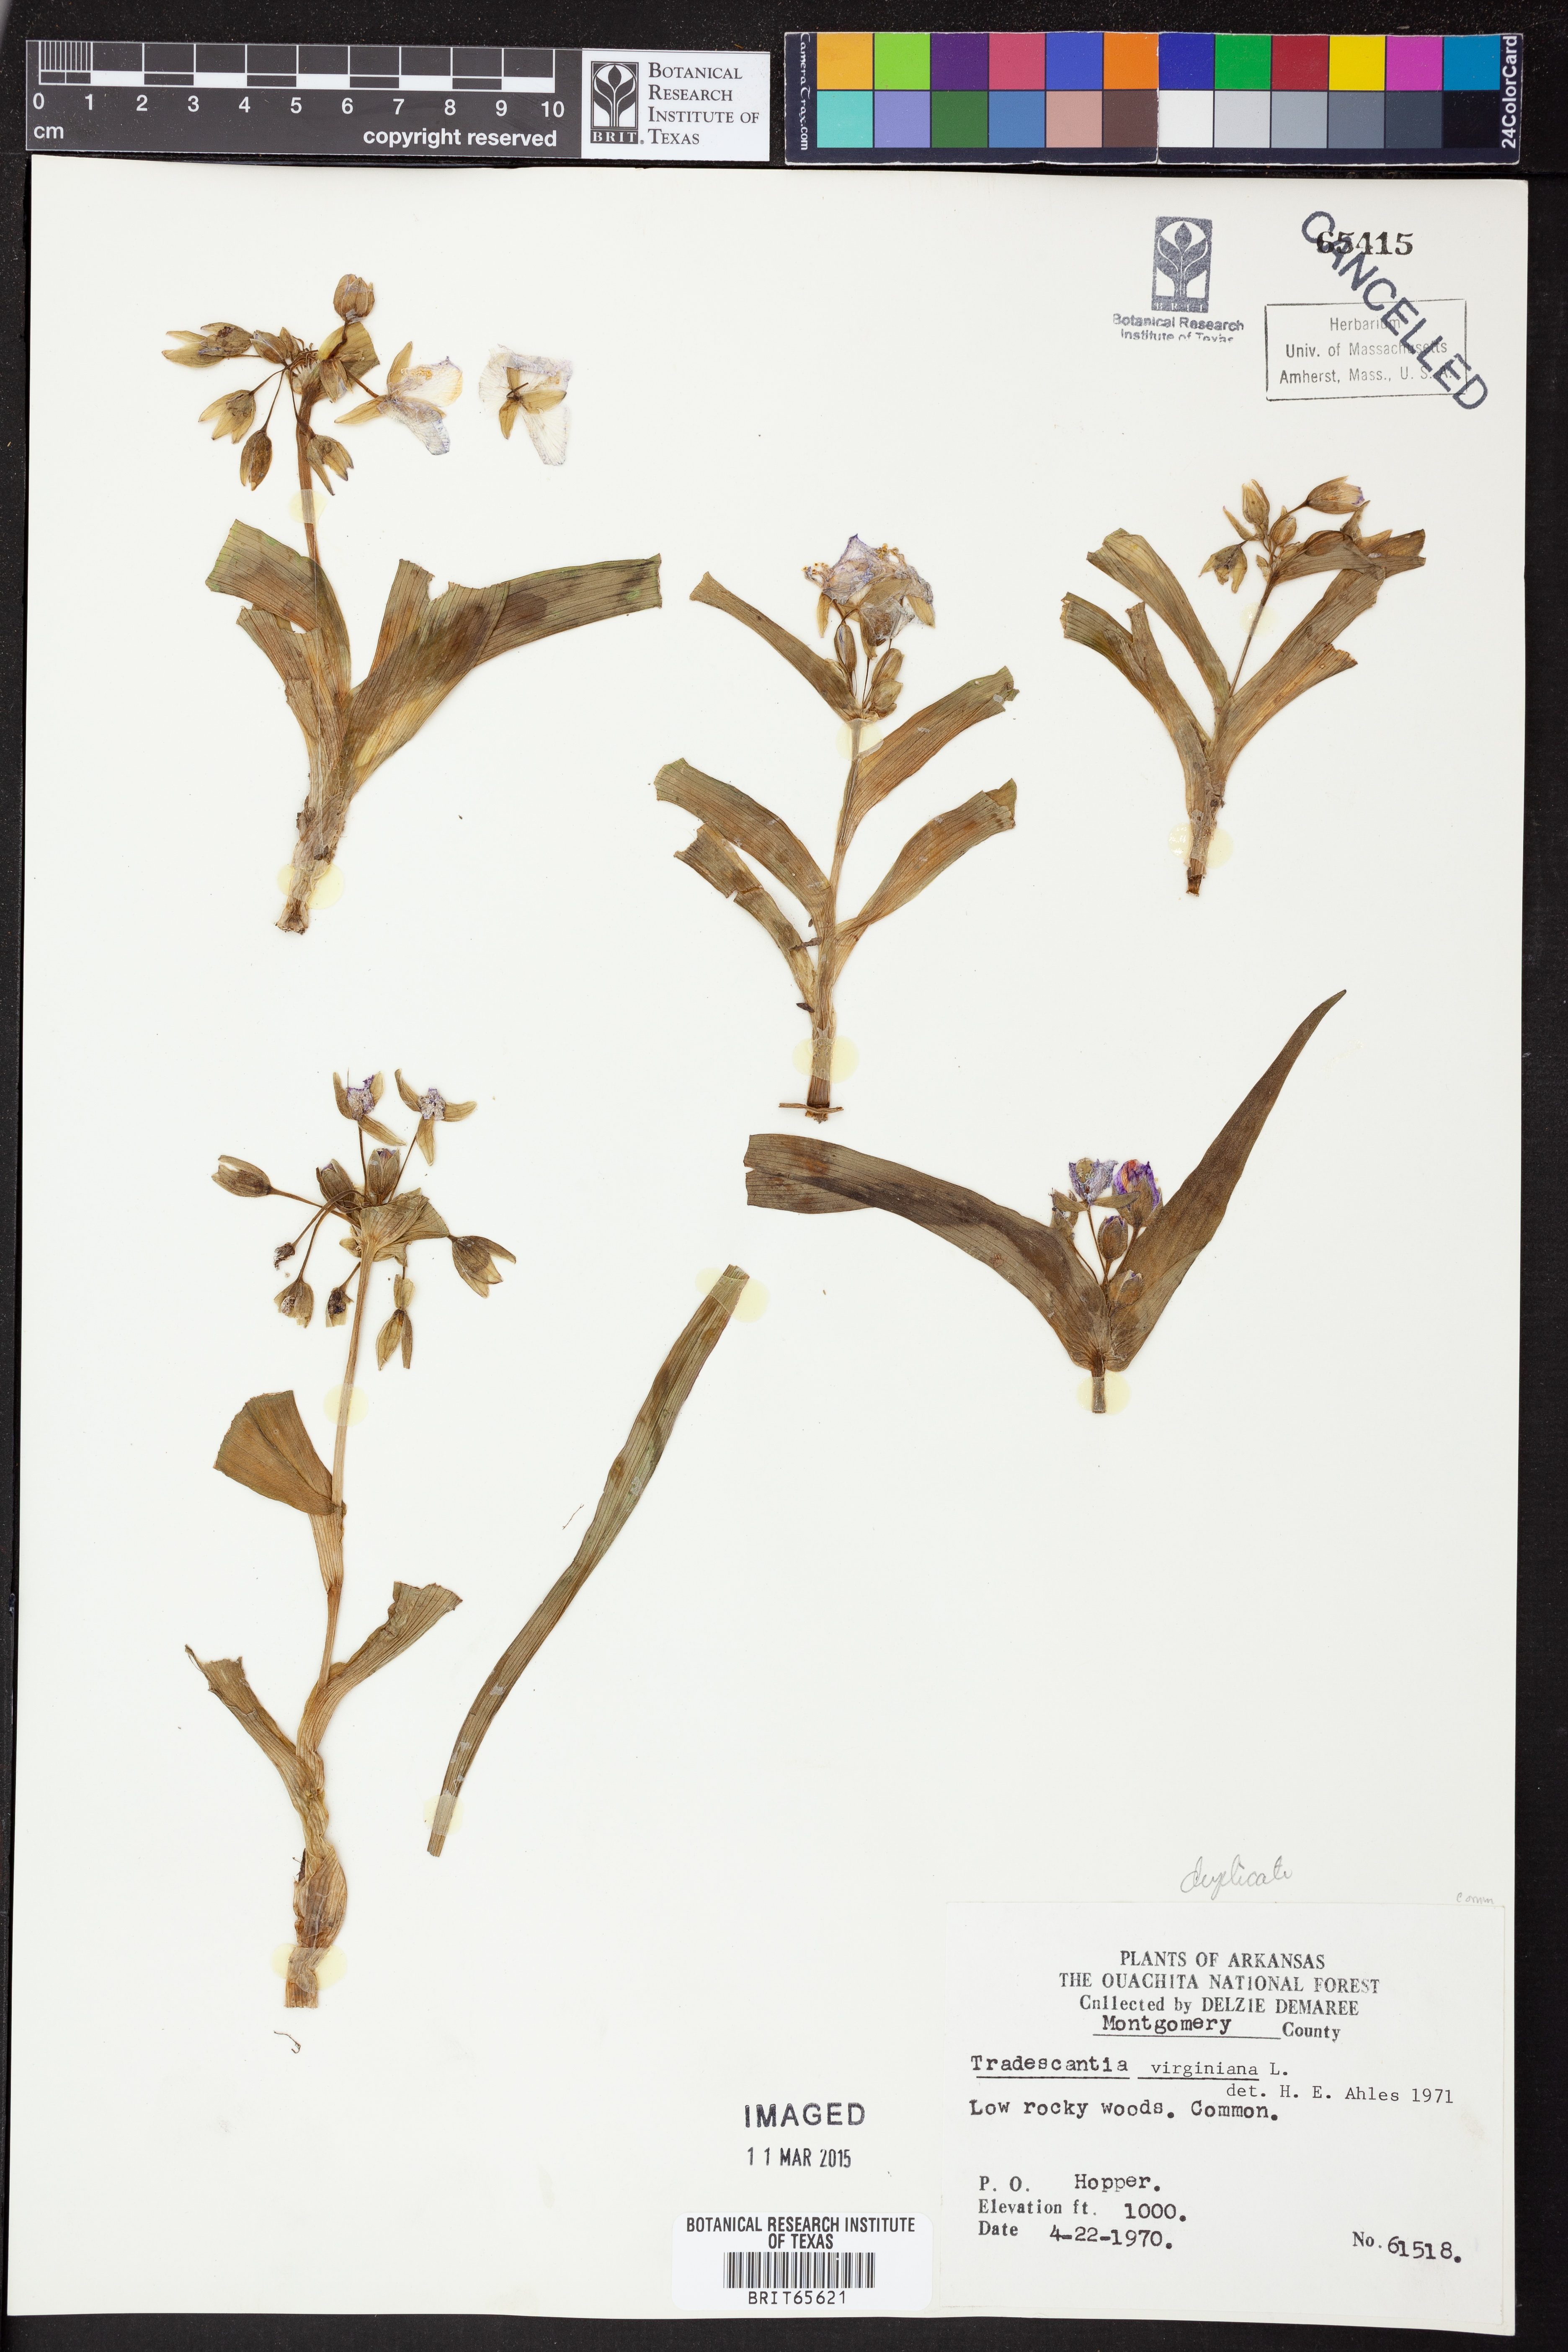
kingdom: Plantae
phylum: Tracheophyta
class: Liliopsida
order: Commelinales
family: Commelinaceae
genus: Tradescantia
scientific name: Tradescantia virginiana
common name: Spiderwort
